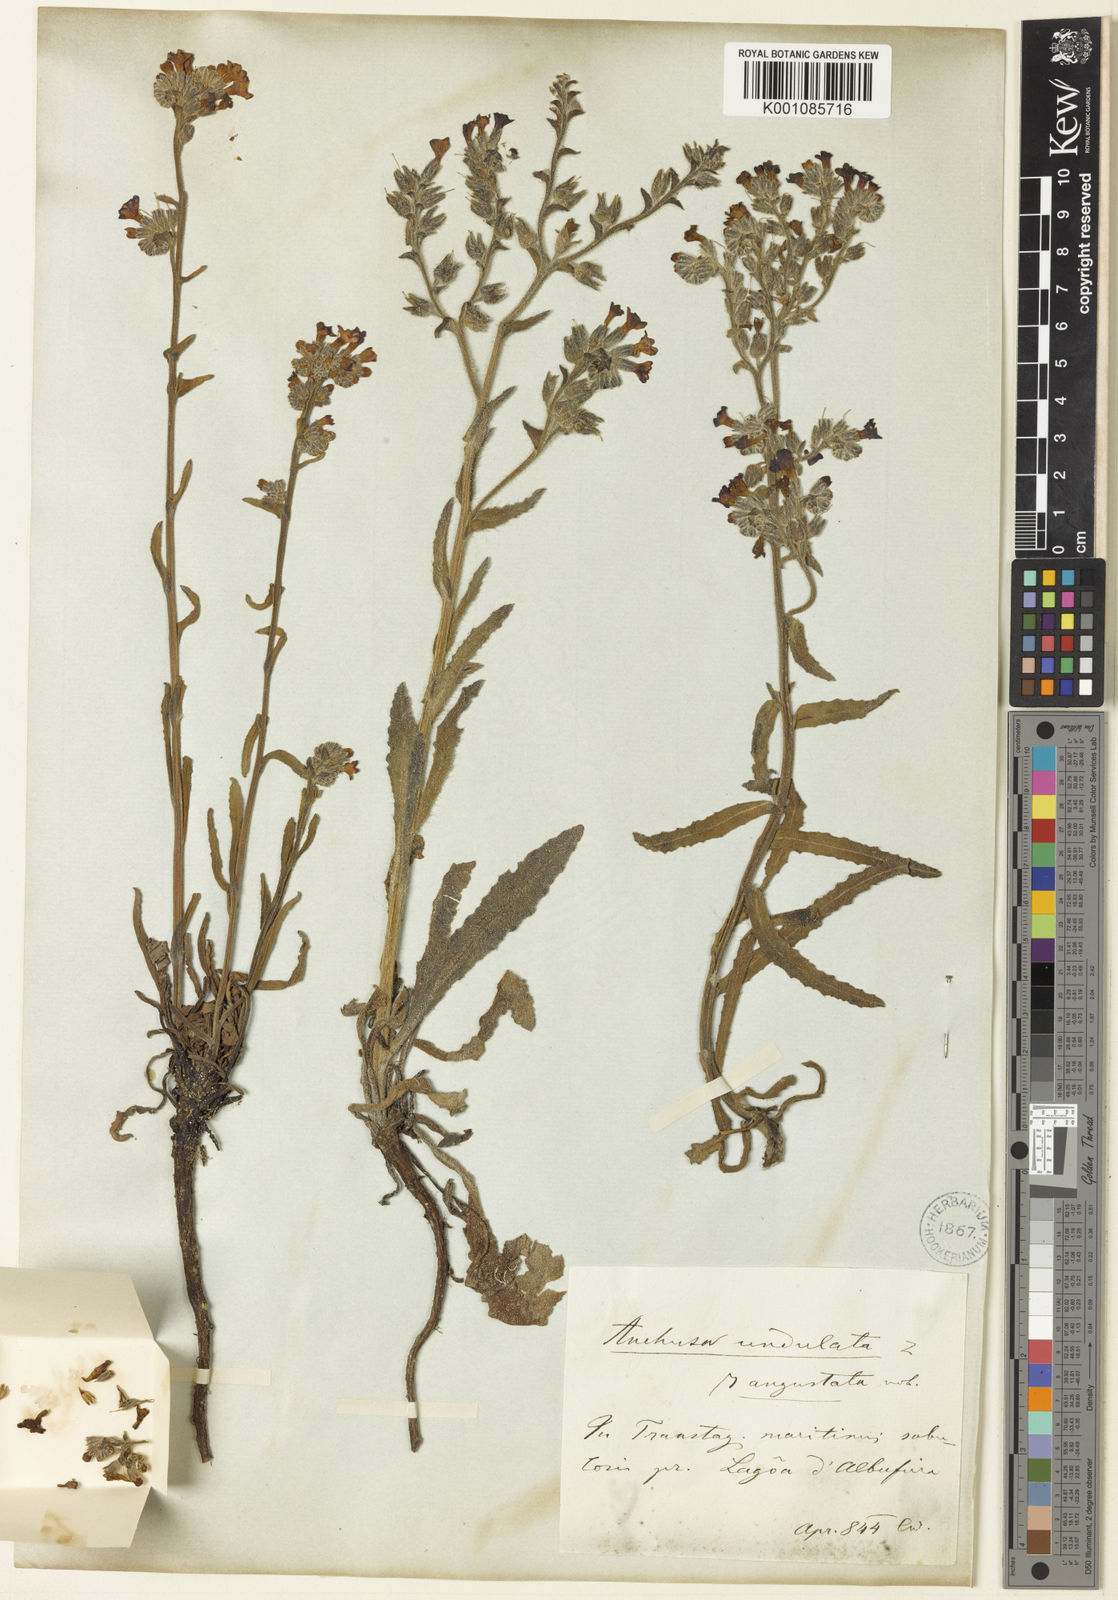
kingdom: Plantae
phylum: Tracheophyta
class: Magnoliopsida
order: Boraginales
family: Boraginaceae
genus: Anchusa
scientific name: Anchusa undulata
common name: Undulate alkanet
